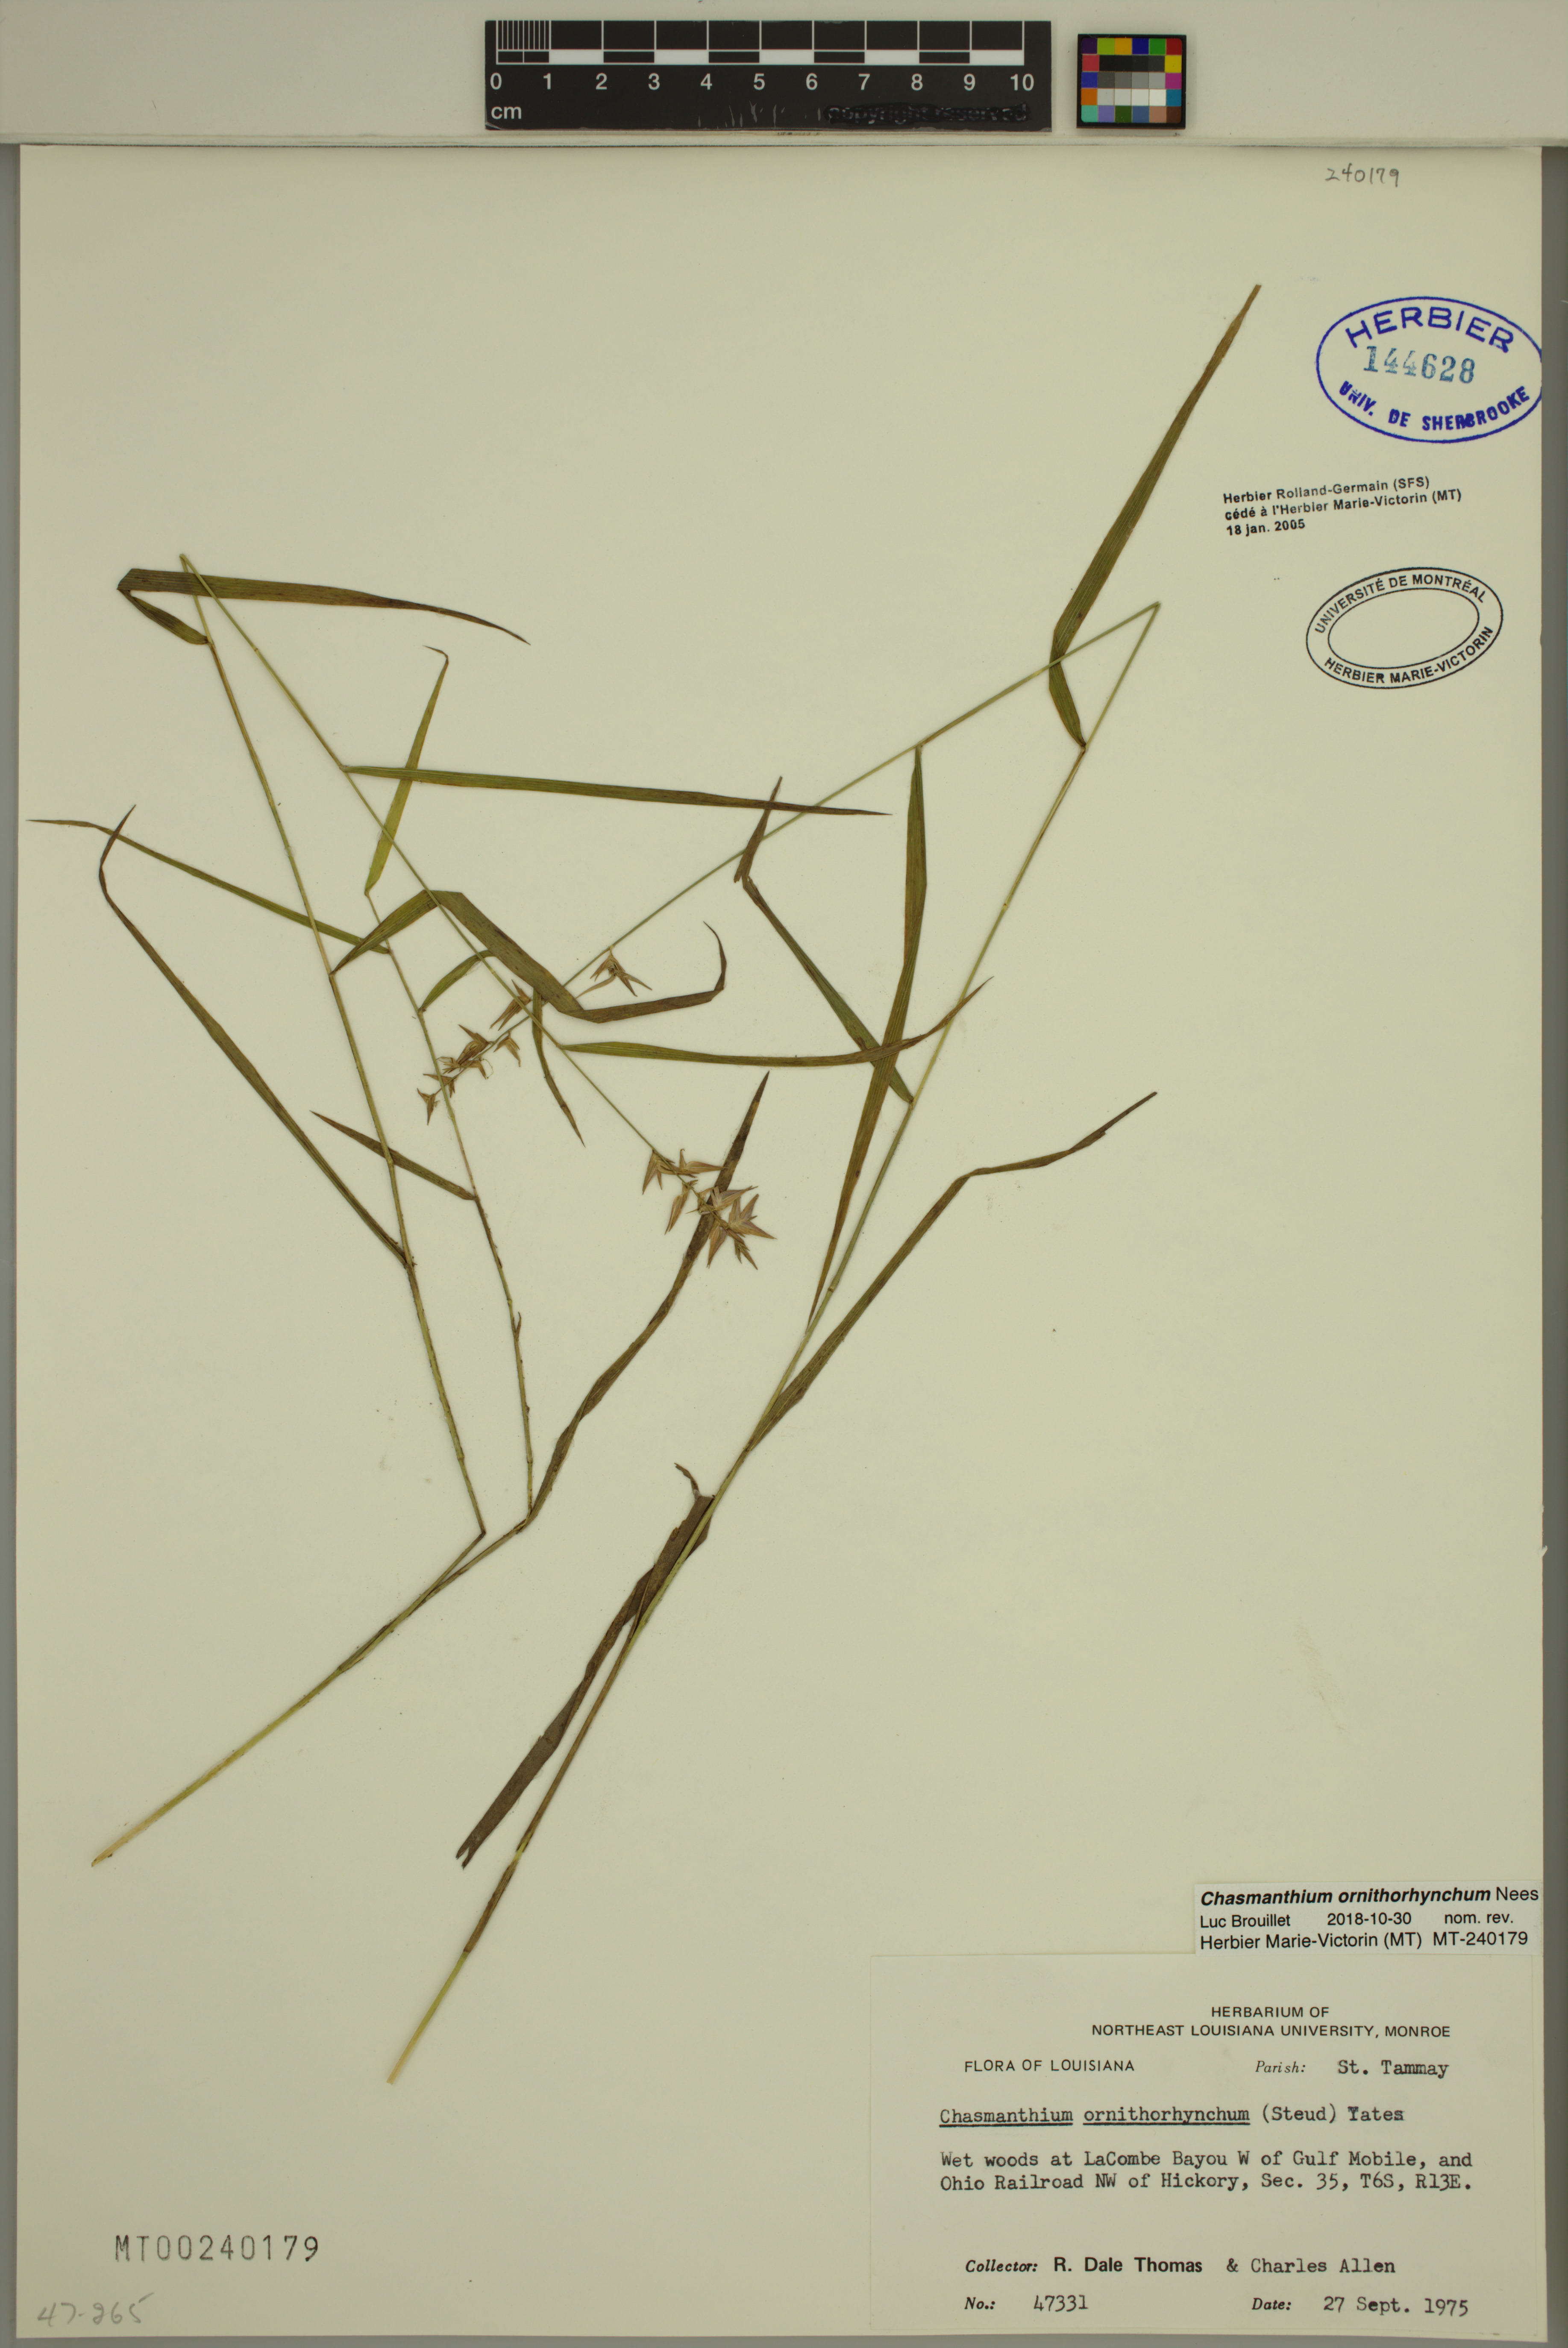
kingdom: Plantae
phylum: Tracheophyta
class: Liliopsida
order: Poales
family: Poaceae
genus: Chasmanthium
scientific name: Chasmanthium ornithorhynchum
